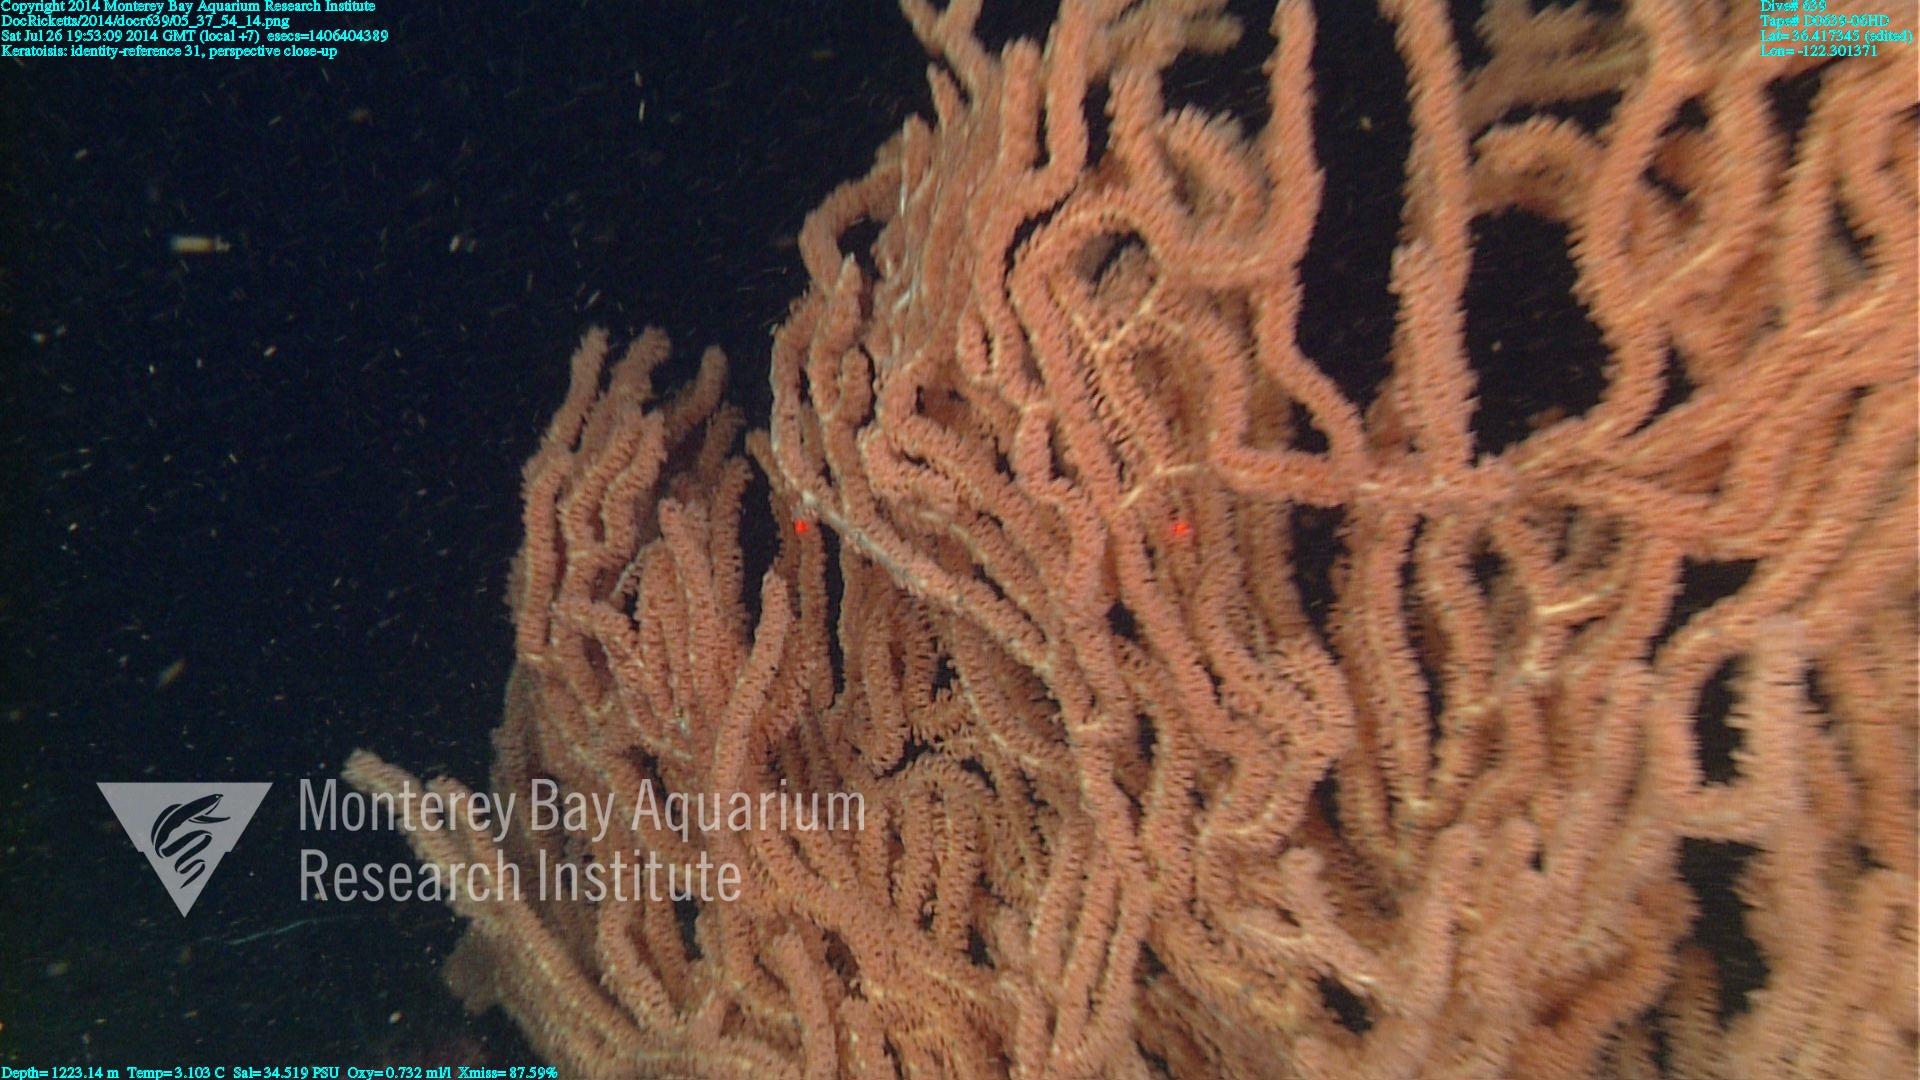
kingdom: Animalia
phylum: Cnidaria
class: Anthozoa
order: Scleralcyonacea
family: Keratoisididae
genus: Keratoisis
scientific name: Keratoisis
